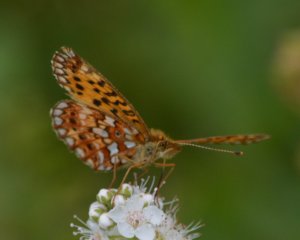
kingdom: Animalia
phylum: Arthropoda
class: Insecta
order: Lepidoptera
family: Nymphalidae
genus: Boloria
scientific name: Boloria selene
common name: Silver-bordered Fritillary
